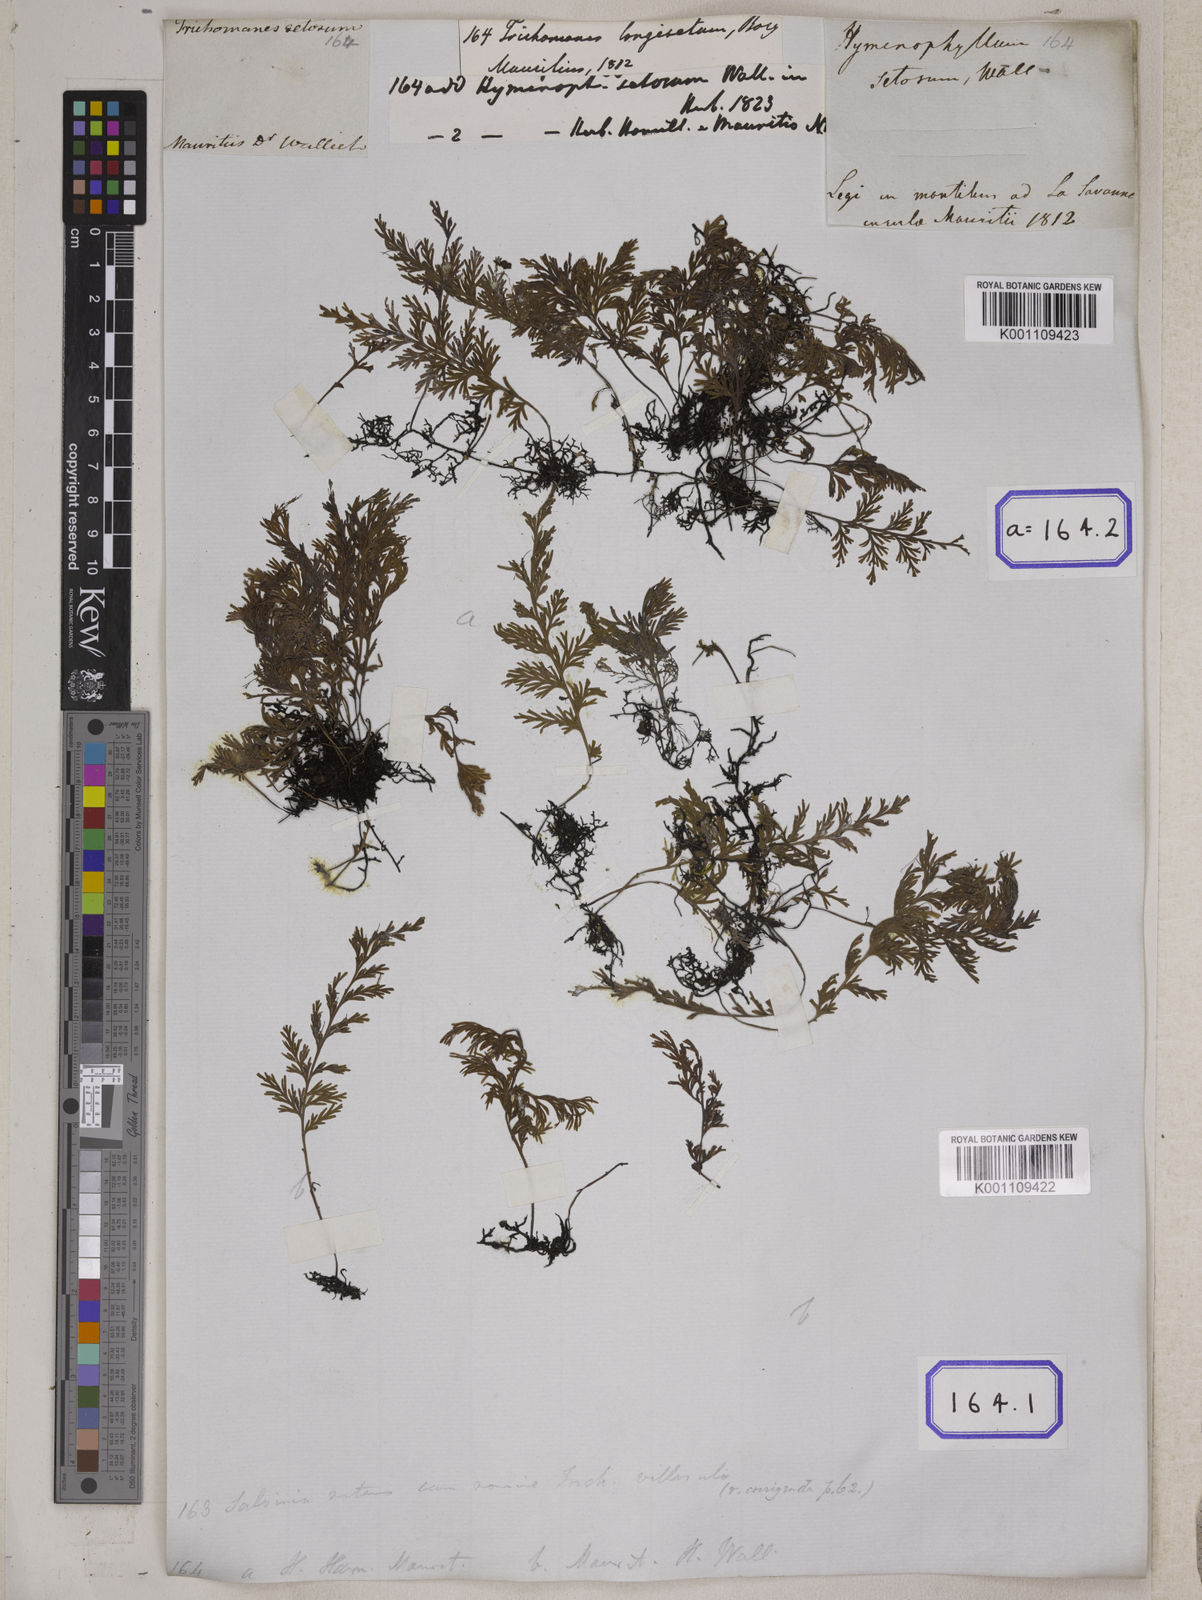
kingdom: Plantae
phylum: Tracheophyta
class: Polypodiopsida
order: Hymenophyllales
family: Hymenophyllaceae
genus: Trichomanes
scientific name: Trichomanes
